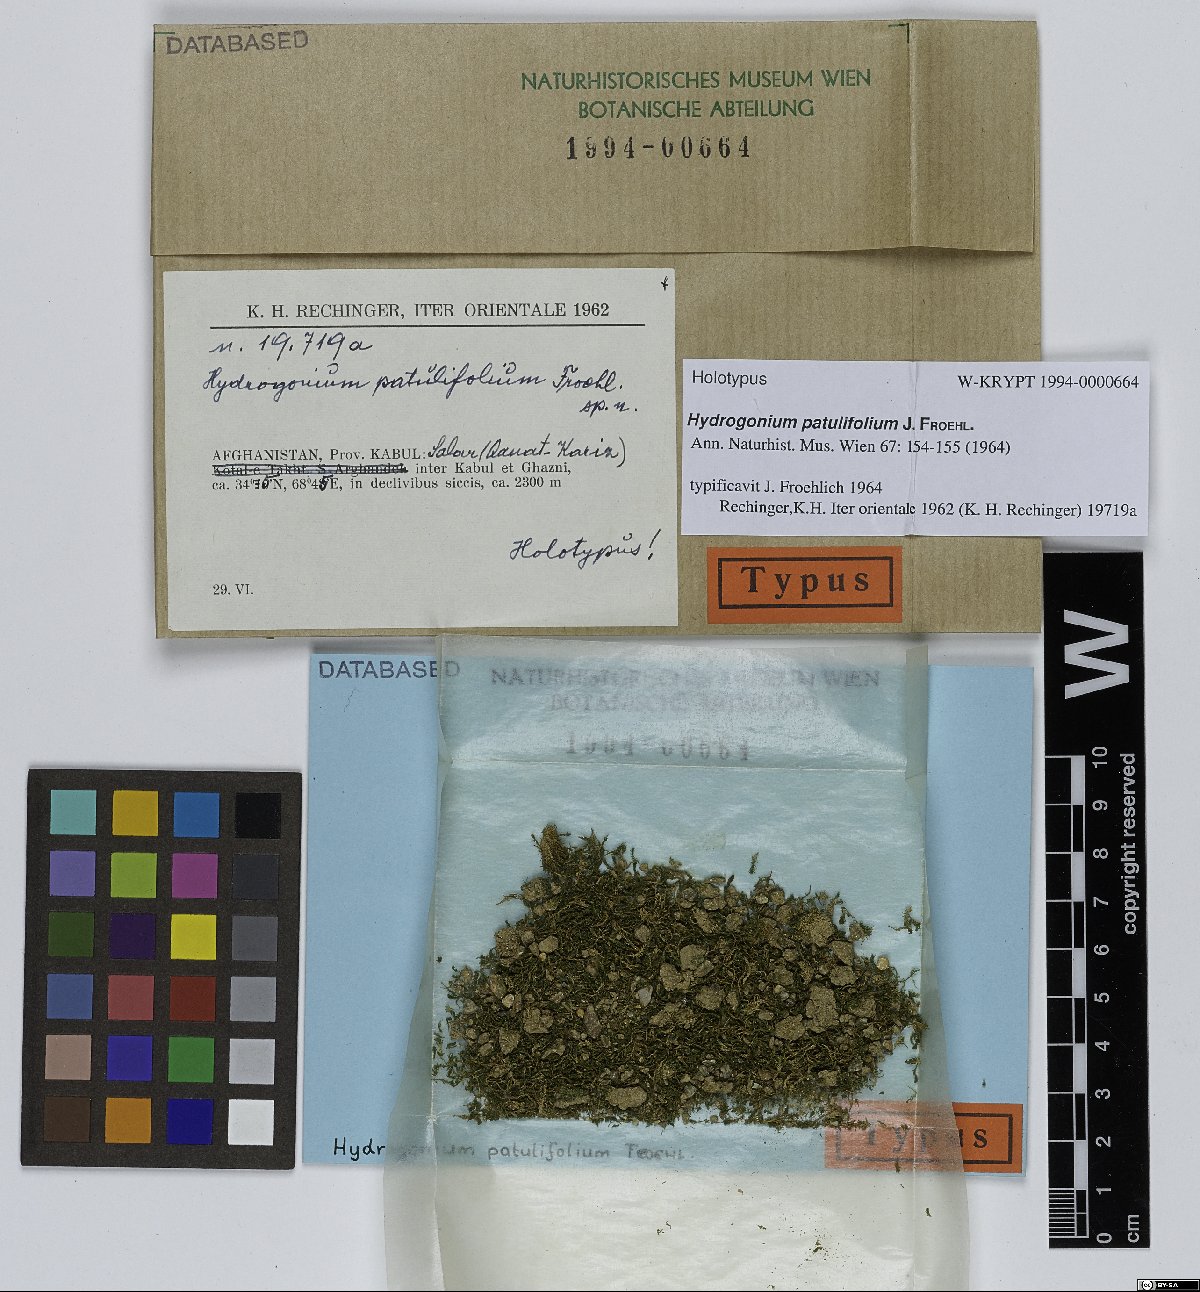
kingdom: Plantae
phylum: Bryophyta
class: Bryopsida
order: Pottiales
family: Pottiaceae
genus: Hydrogonium
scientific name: Hydrogonium patulifolium
